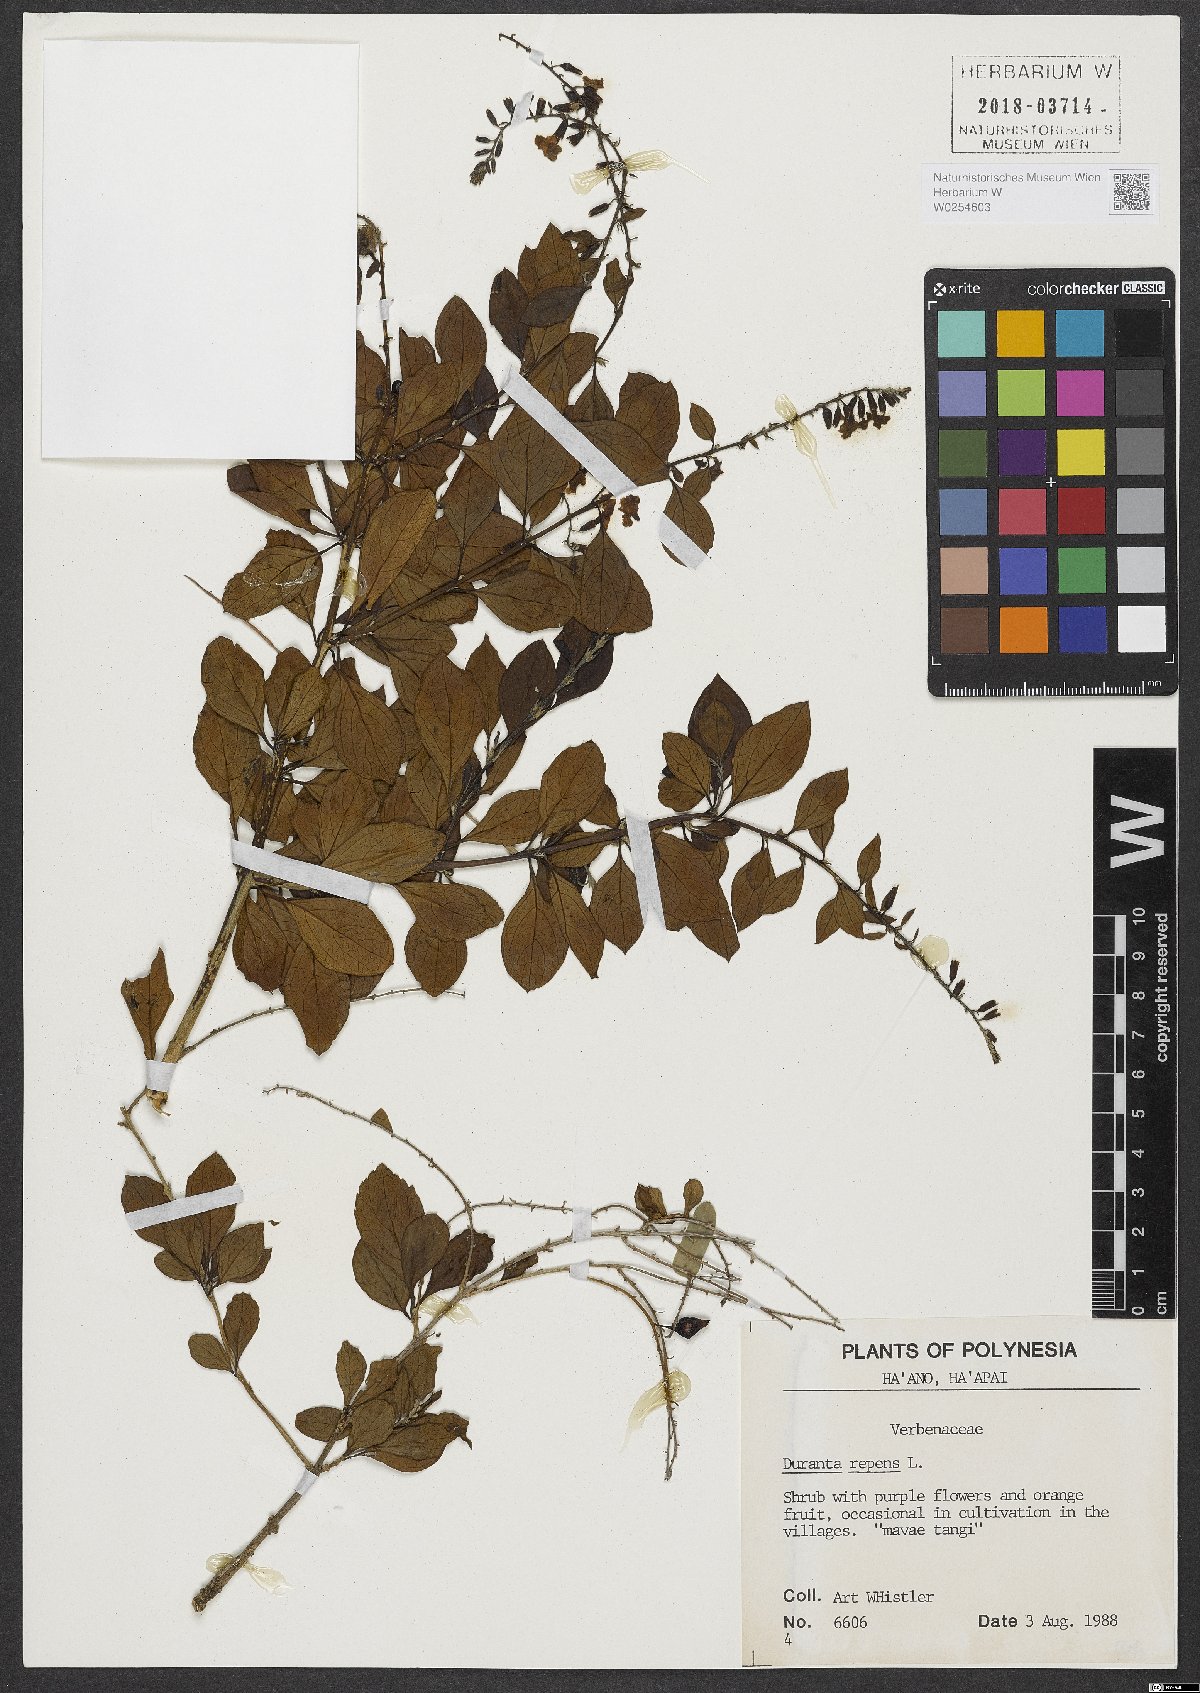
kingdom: Plantae
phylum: Tracheophyta
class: Magnoliopsida
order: Lamiales
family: Verbenaceae
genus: Duranta
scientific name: Duranta erecta
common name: Golden dewdrops
